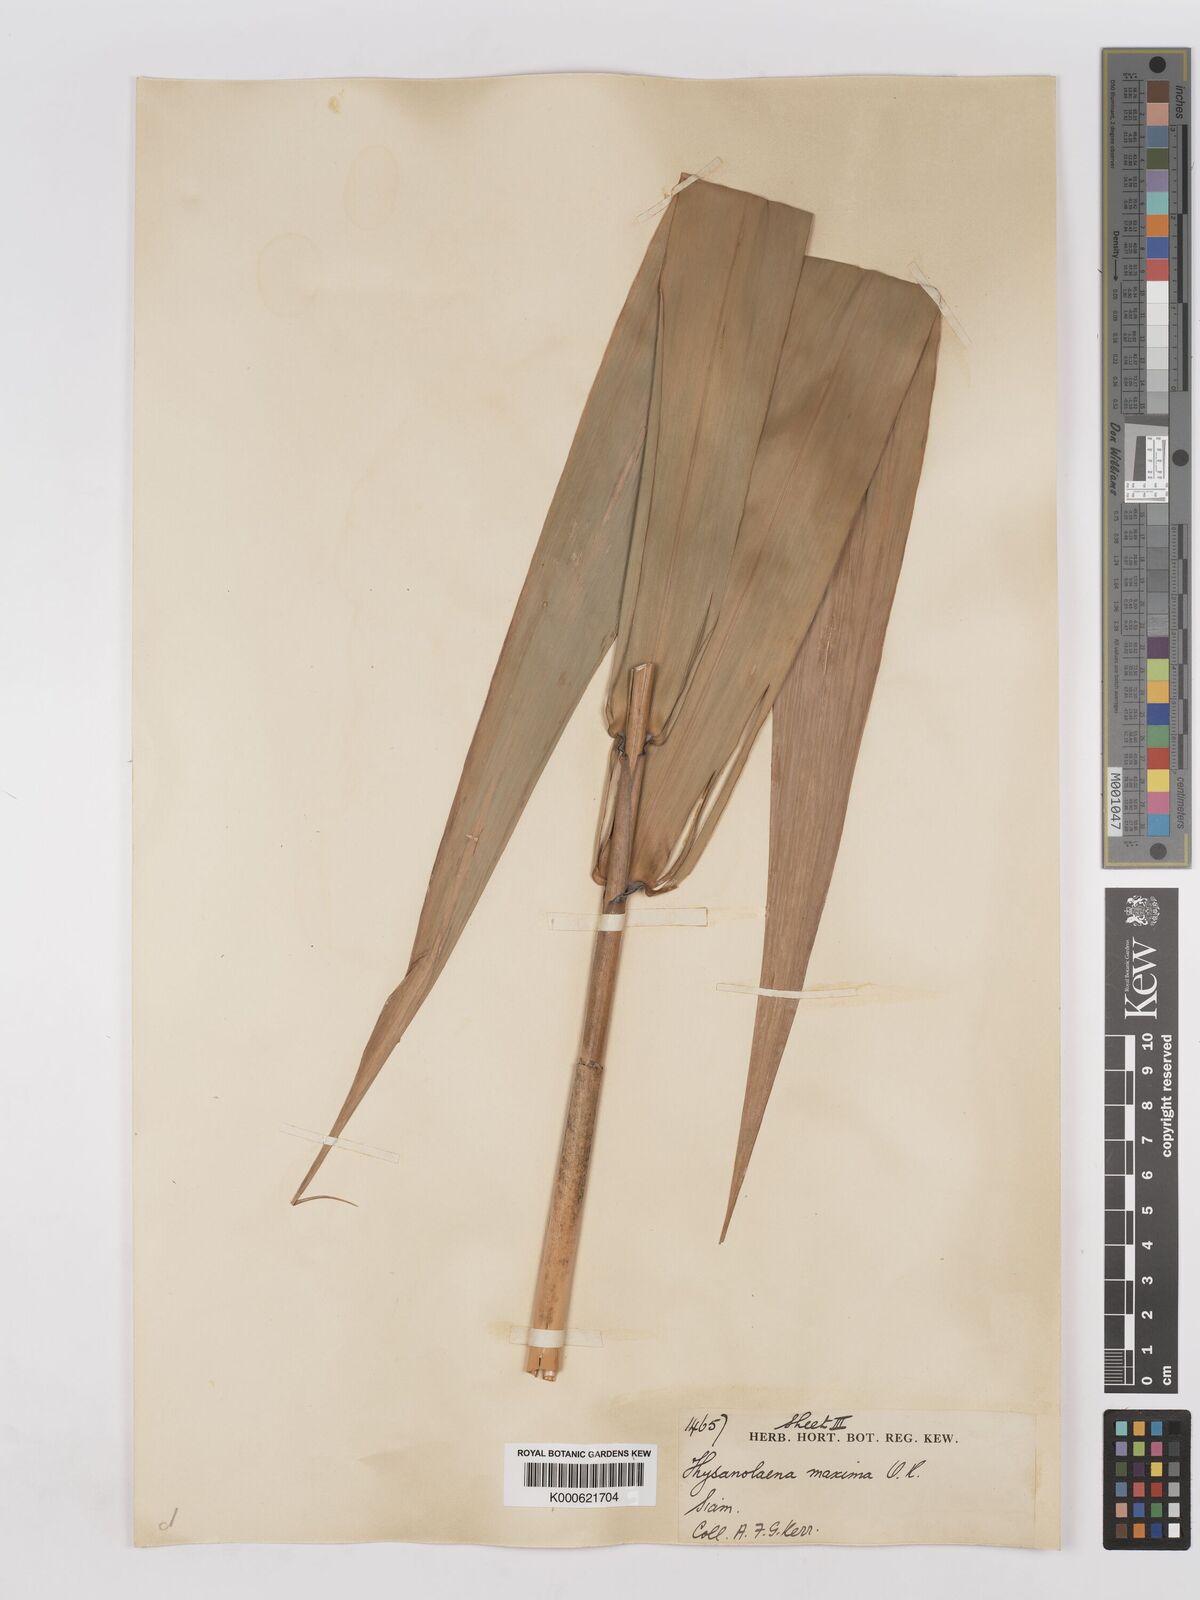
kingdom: Plantae
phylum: Tracheophyta
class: Liliopsida
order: Poales
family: Poaceae
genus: Thysanolaena
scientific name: Thysanolaena latifolia
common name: Tiger grass
